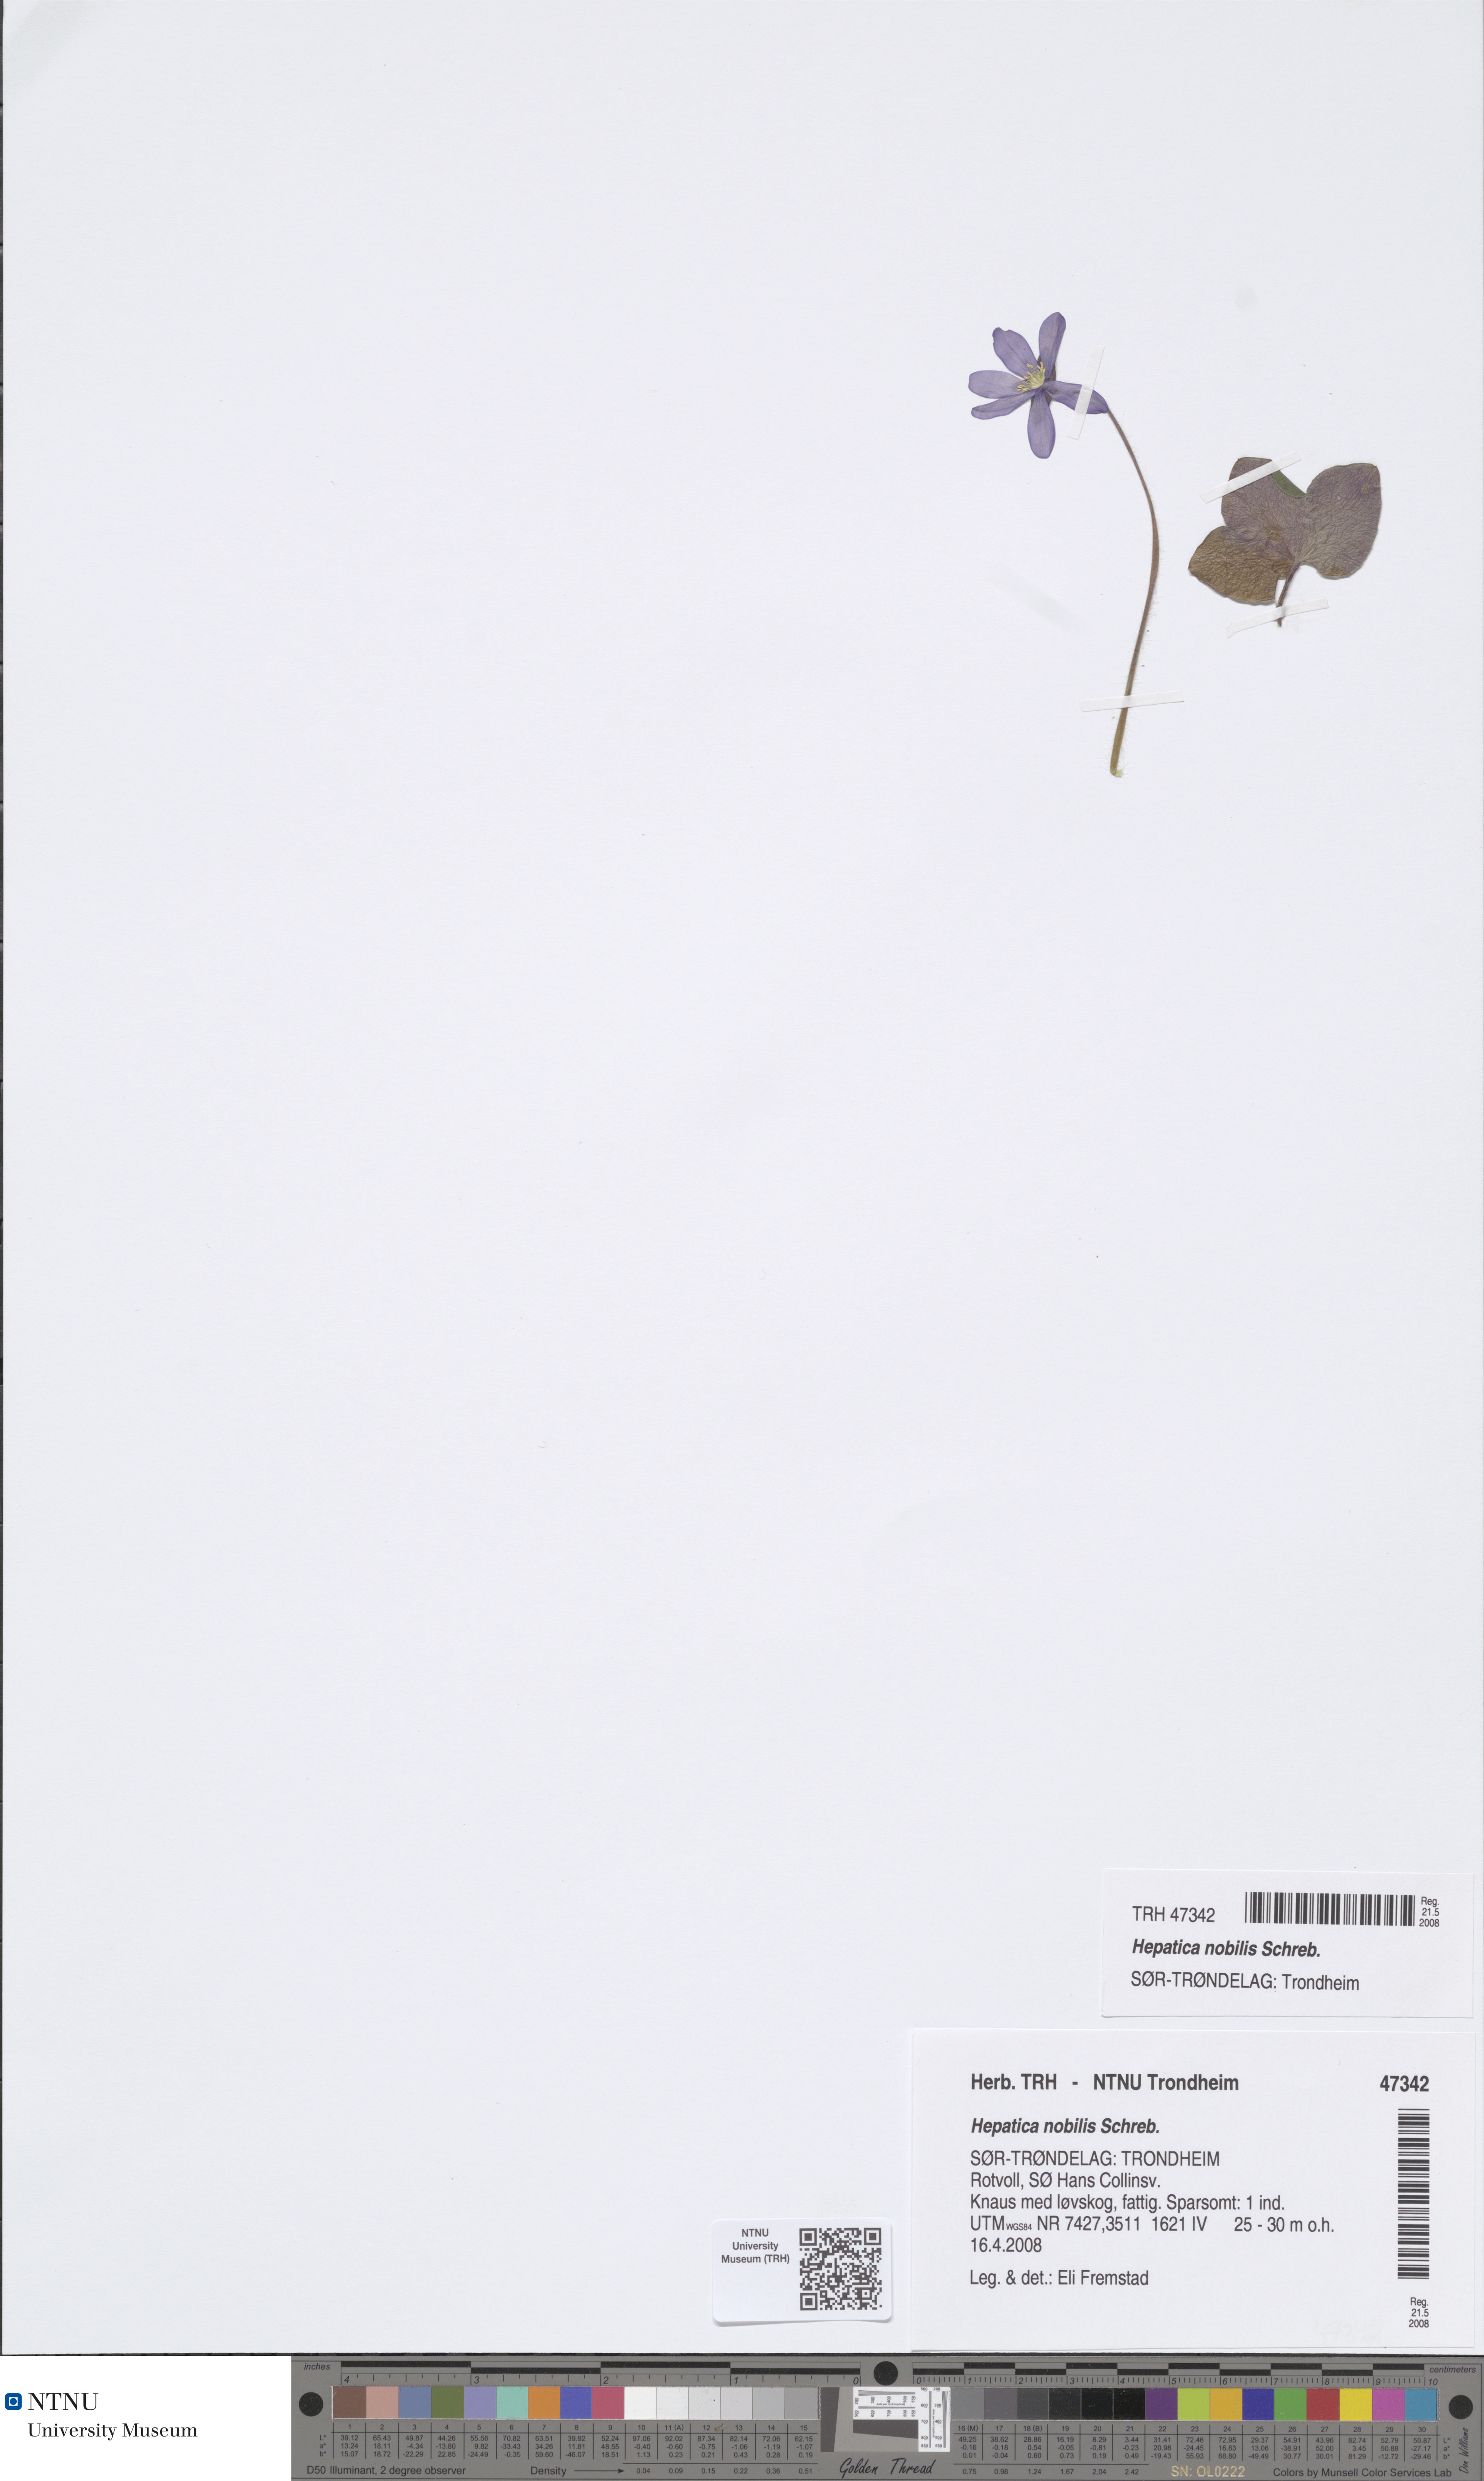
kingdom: Plantae
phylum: Tracheophyta
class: Magnoliopsida
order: Ranunculales
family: Ranunculaceae
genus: Hepatica
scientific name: Hepatica nobilis
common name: Liverleaf
